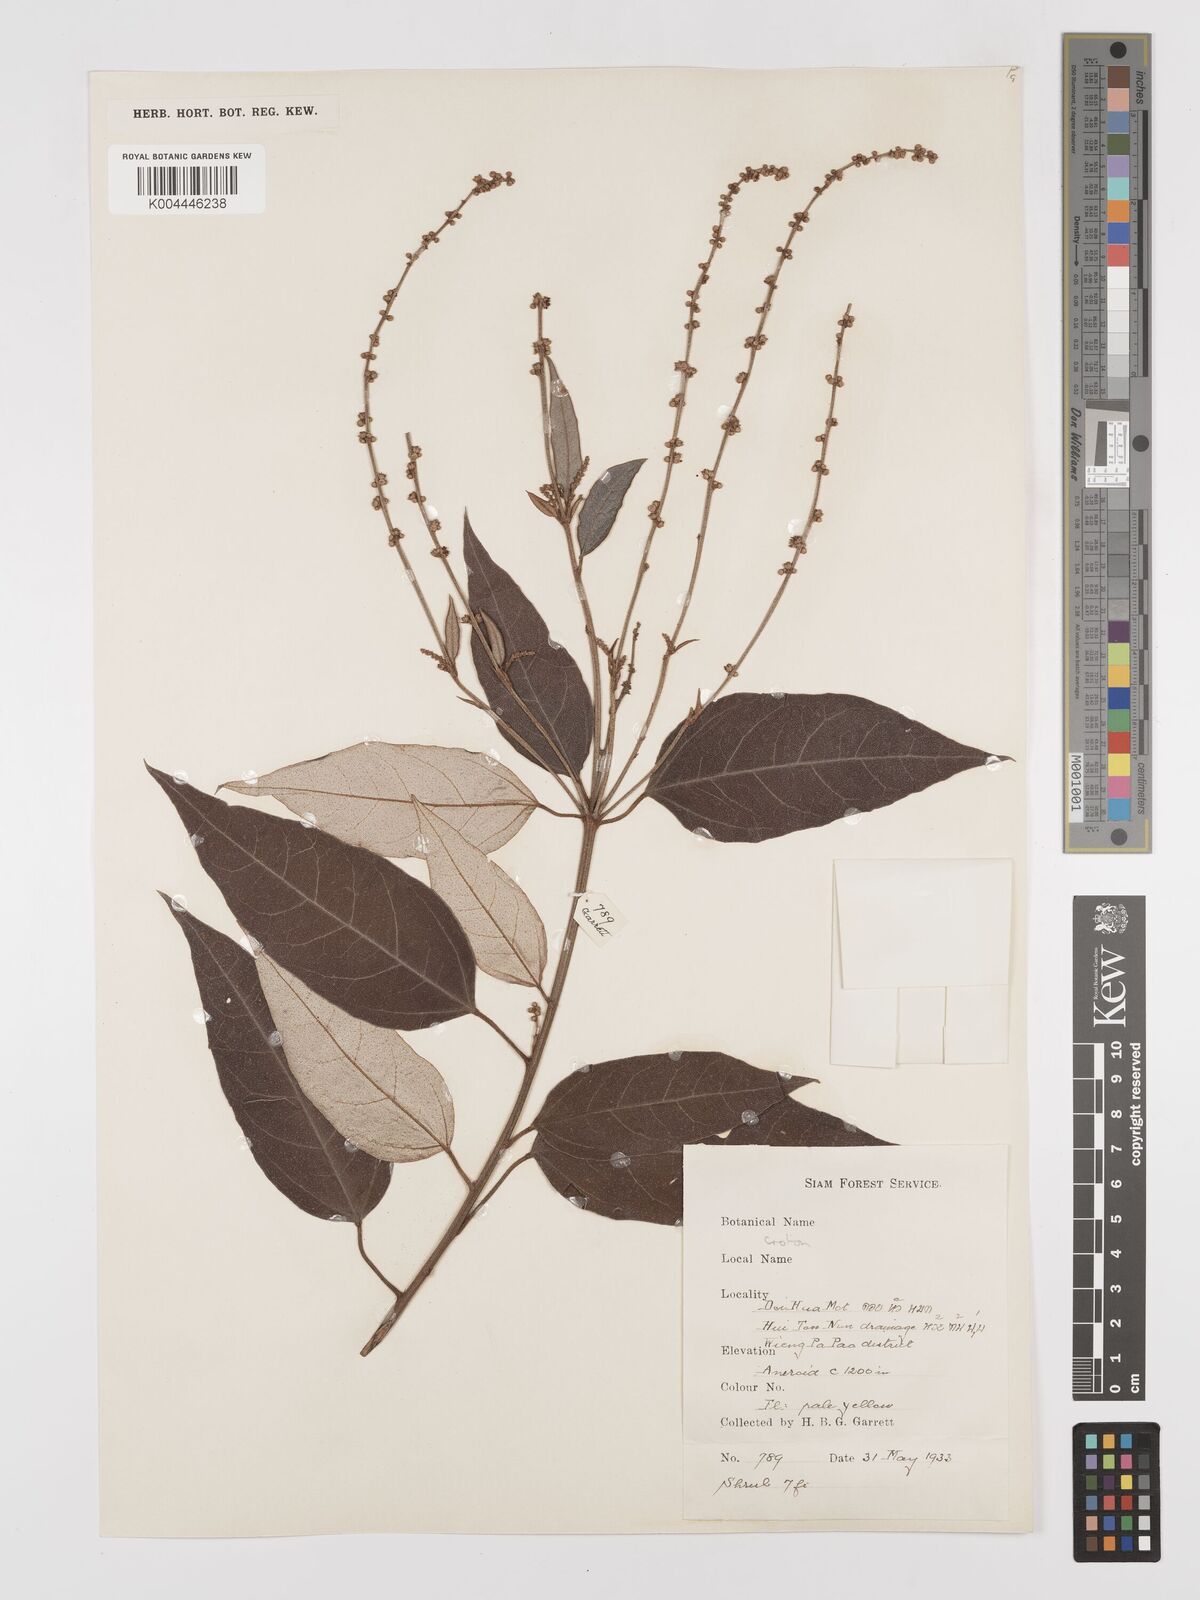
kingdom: Plantae
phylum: Tracheophyta
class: Magnoliopsida
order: Malpighiales
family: Euphorbiaceae
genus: Croton
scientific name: Croton kongensis
